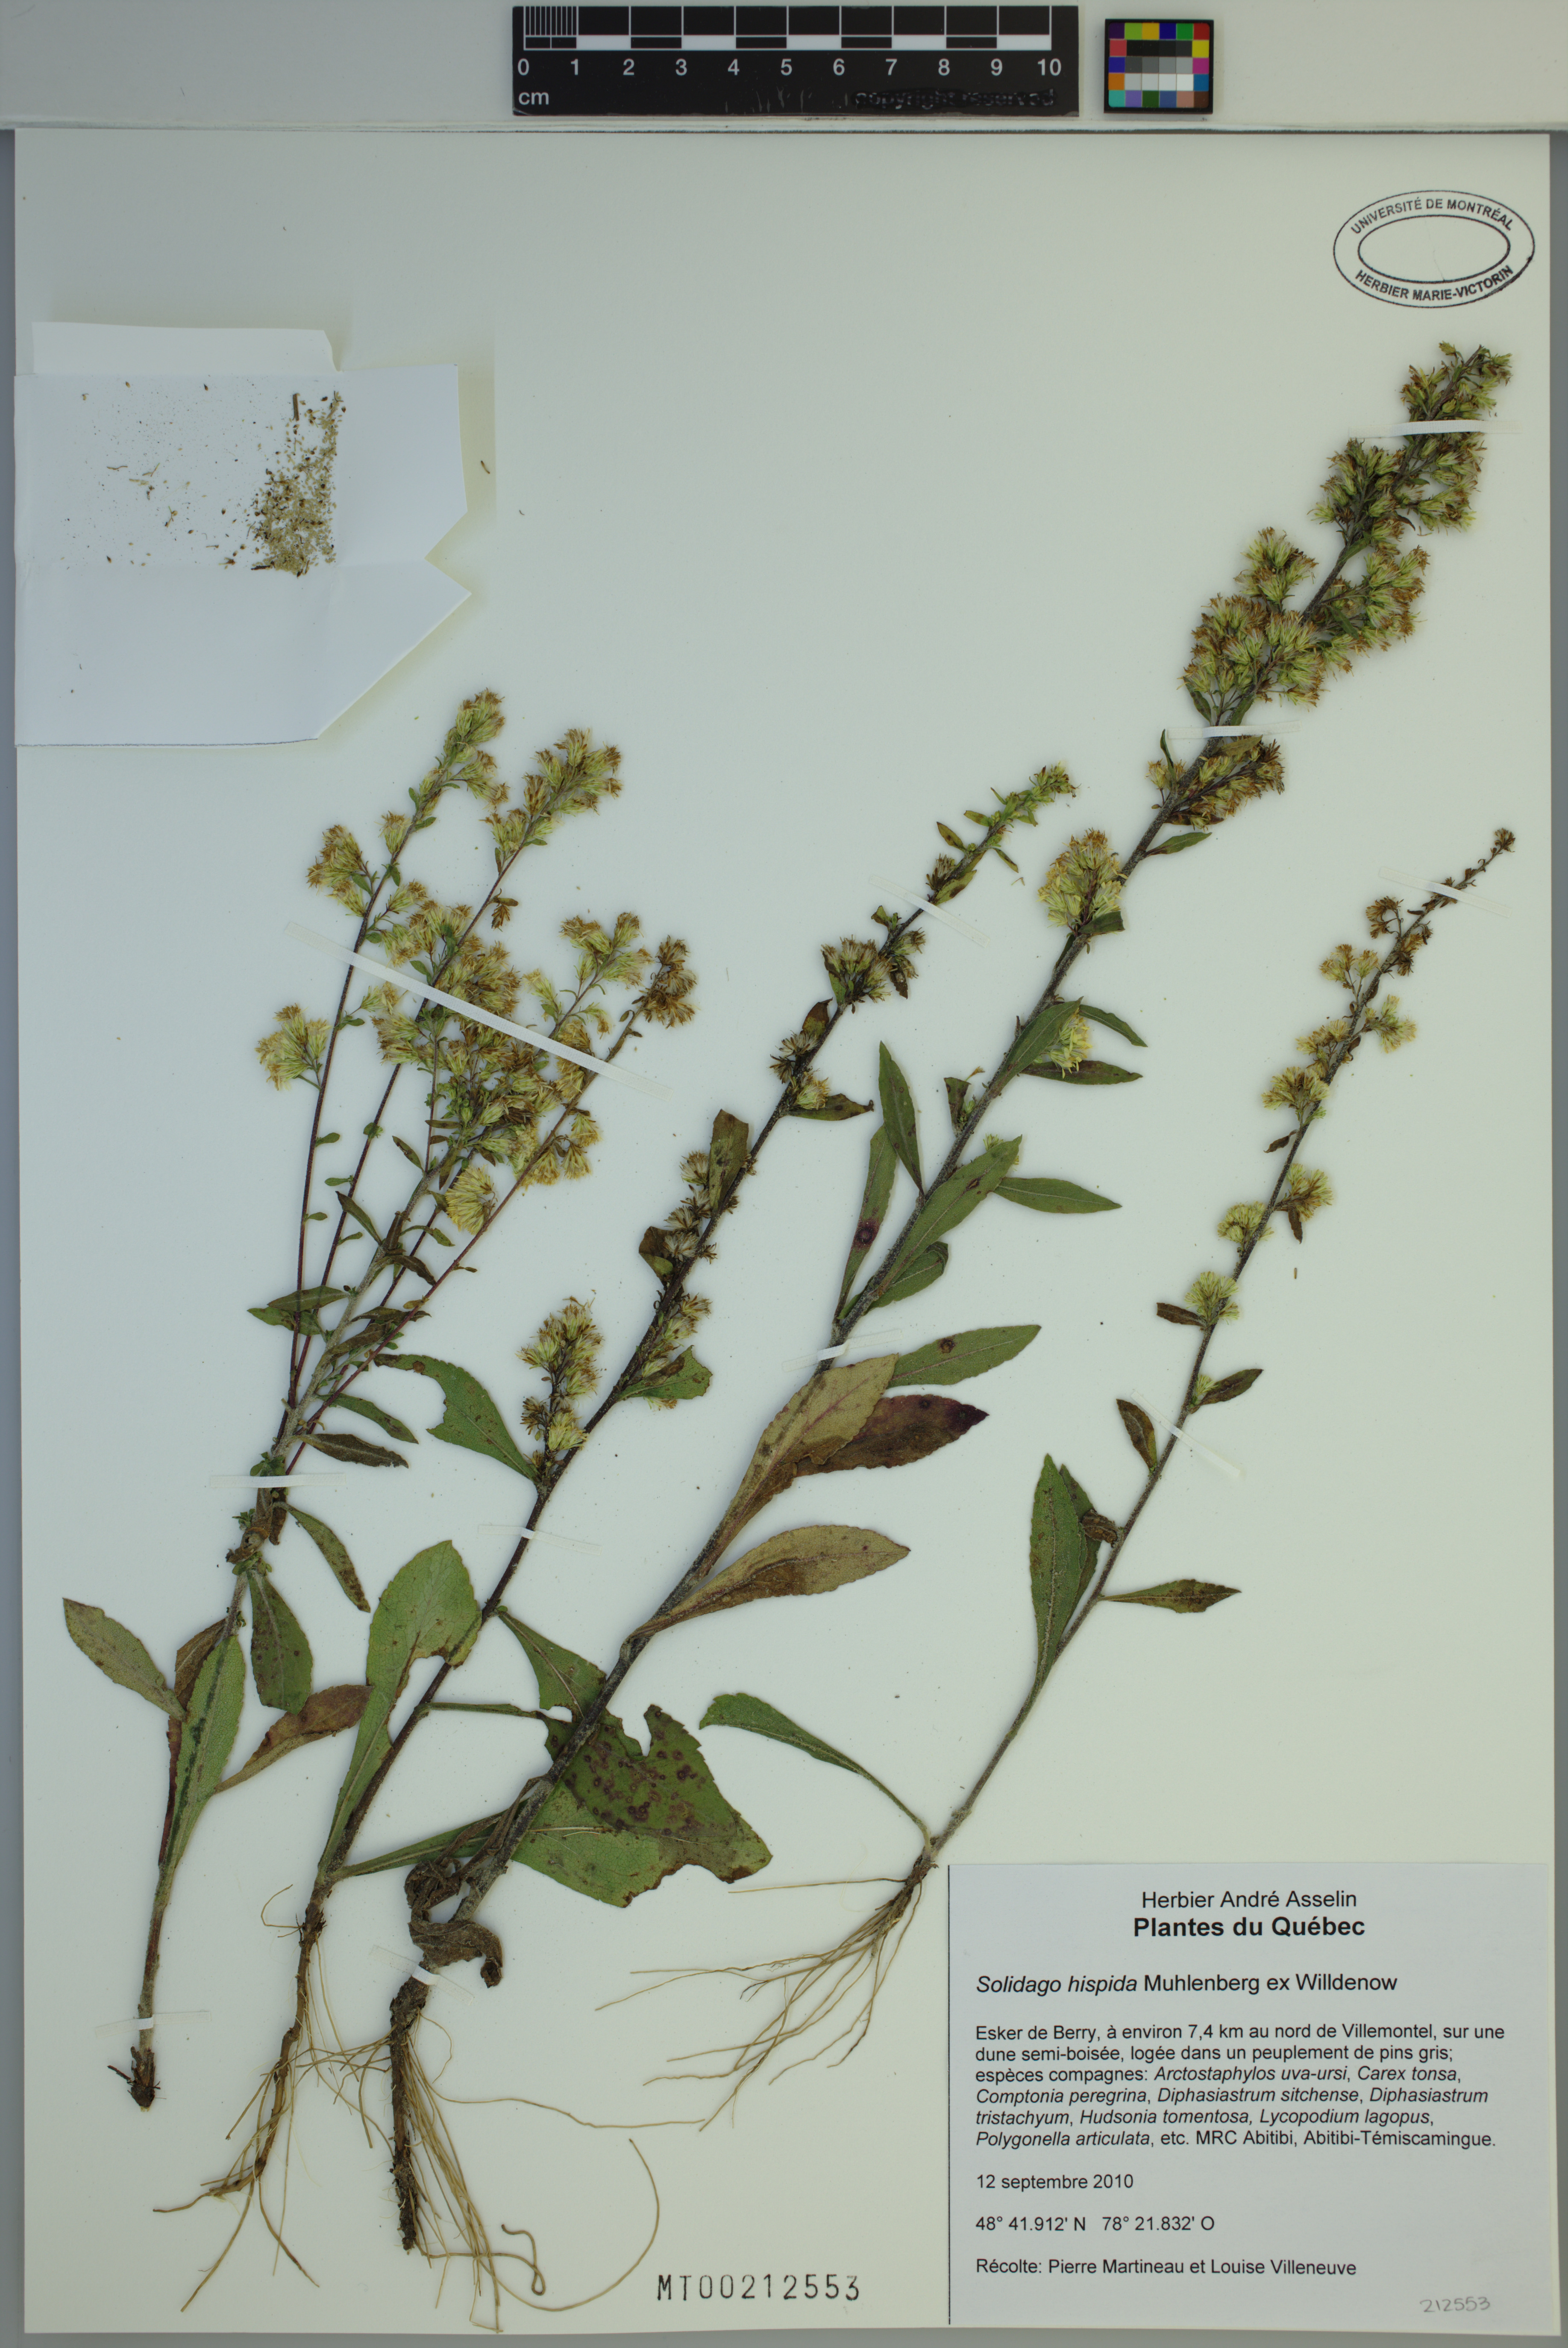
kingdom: Plantae
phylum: Tracheophyta
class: Magnoliopsida
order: Asterales
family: Asteraceae
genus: Solidago
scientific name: Solidago hispida
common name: Hairy goldenrod
